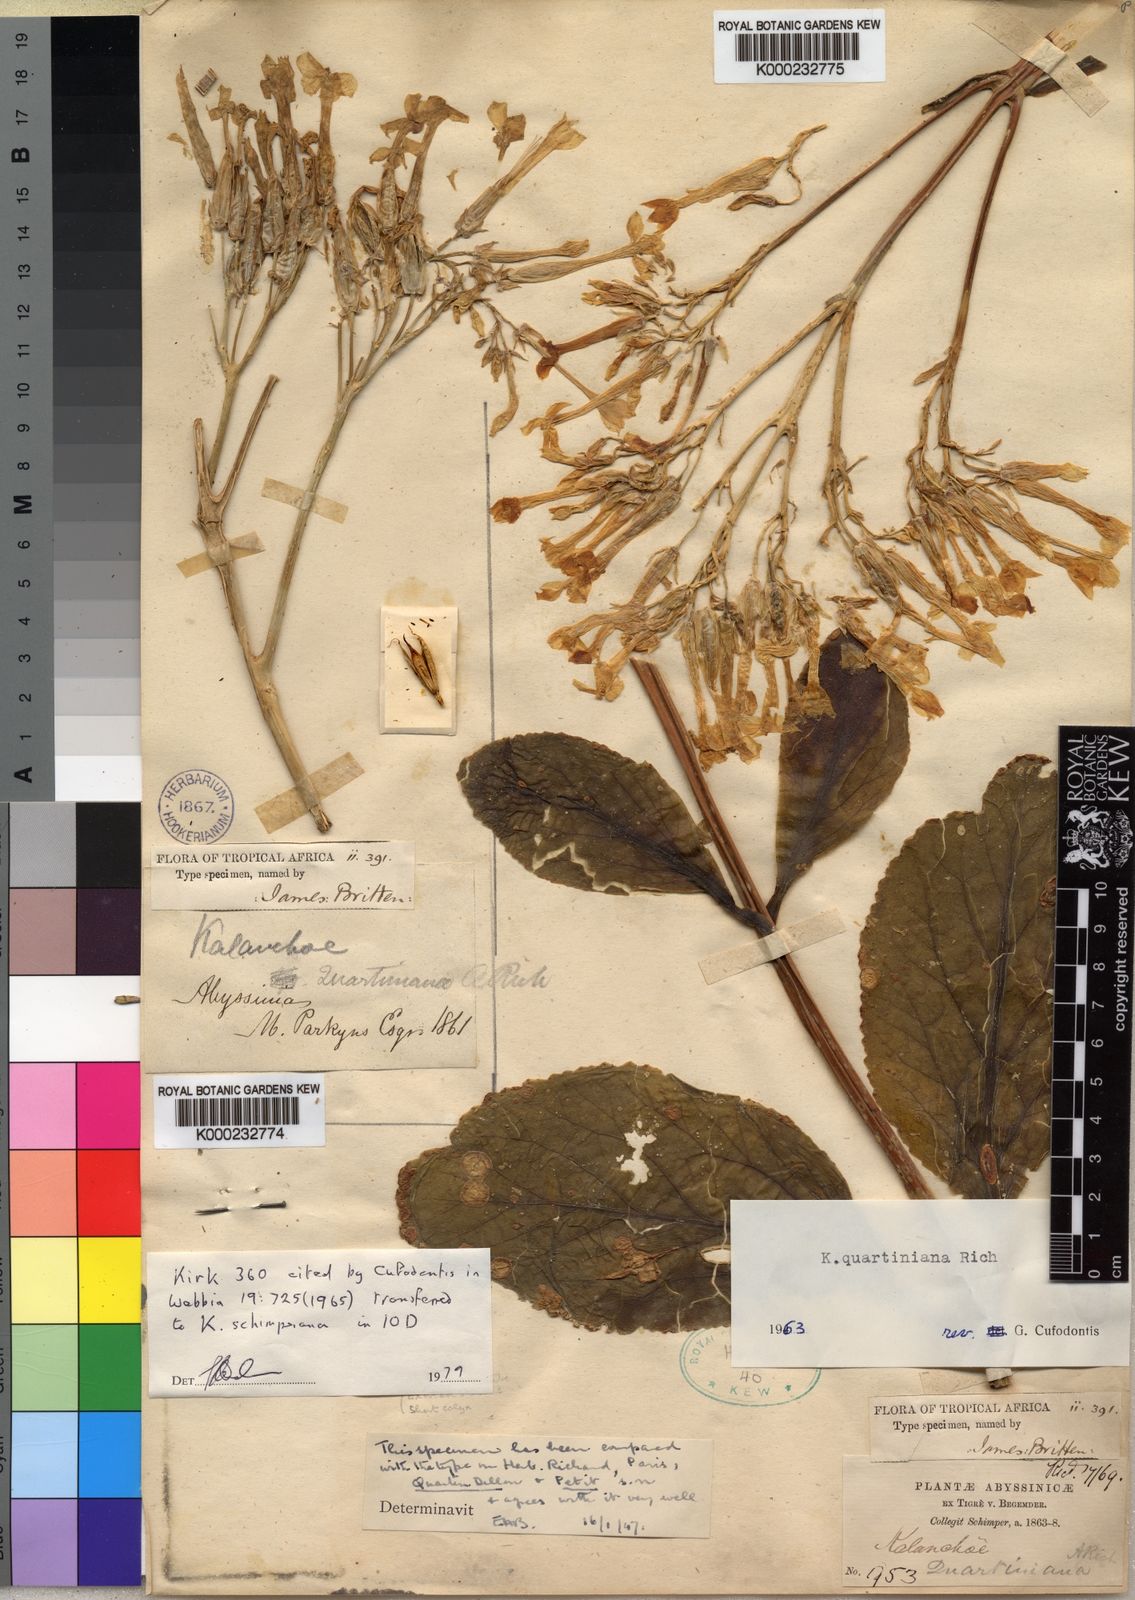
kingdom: Plantae
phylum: Tracheophyta
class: Magnoliopsida
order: Saxifragales
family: Crassulaceae
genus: Kalanchoe
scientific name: Kalanchoe quartiniana
